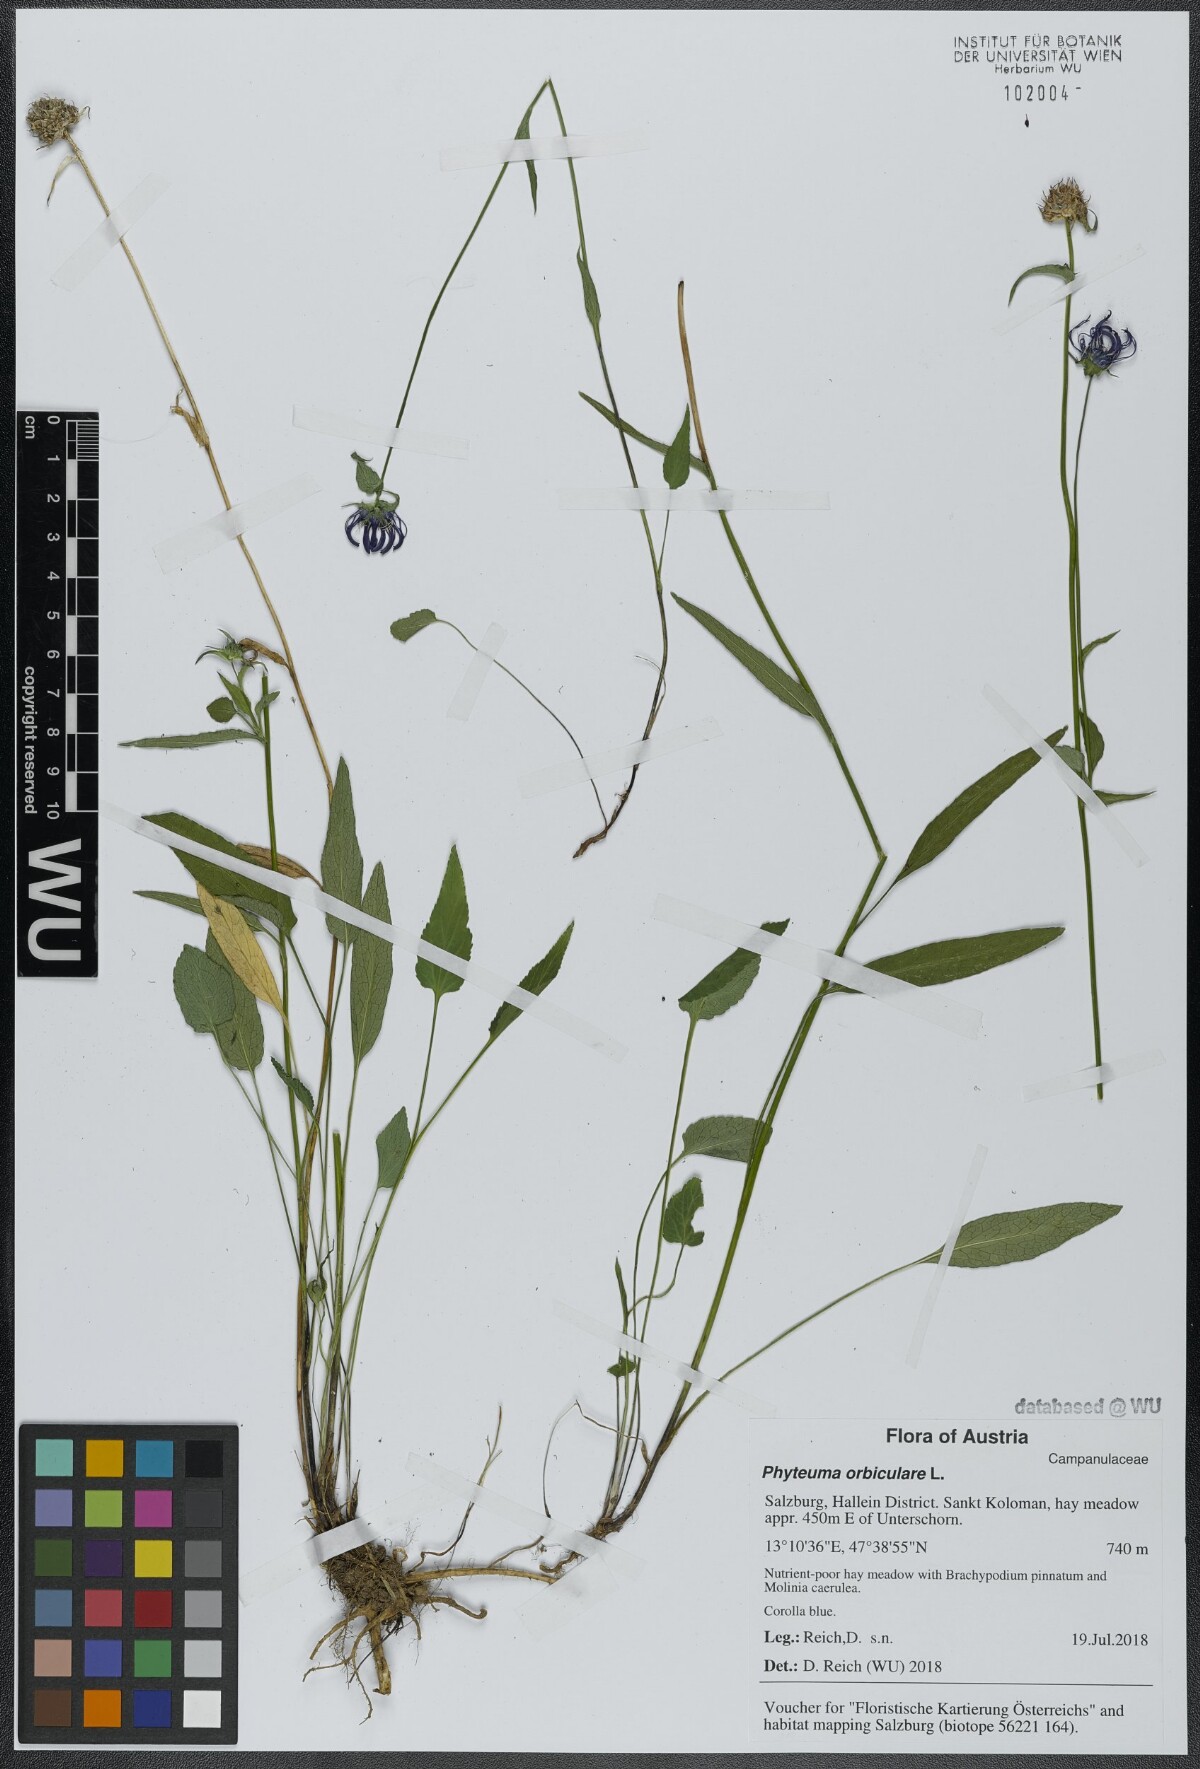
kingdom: Plantae
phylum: Tracheophyta
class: Magnoliopsida
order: Asterales
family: Campanulaceae
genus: Phyteuma
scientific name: Phyteuma orbiculare
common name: Round-headed rampion
